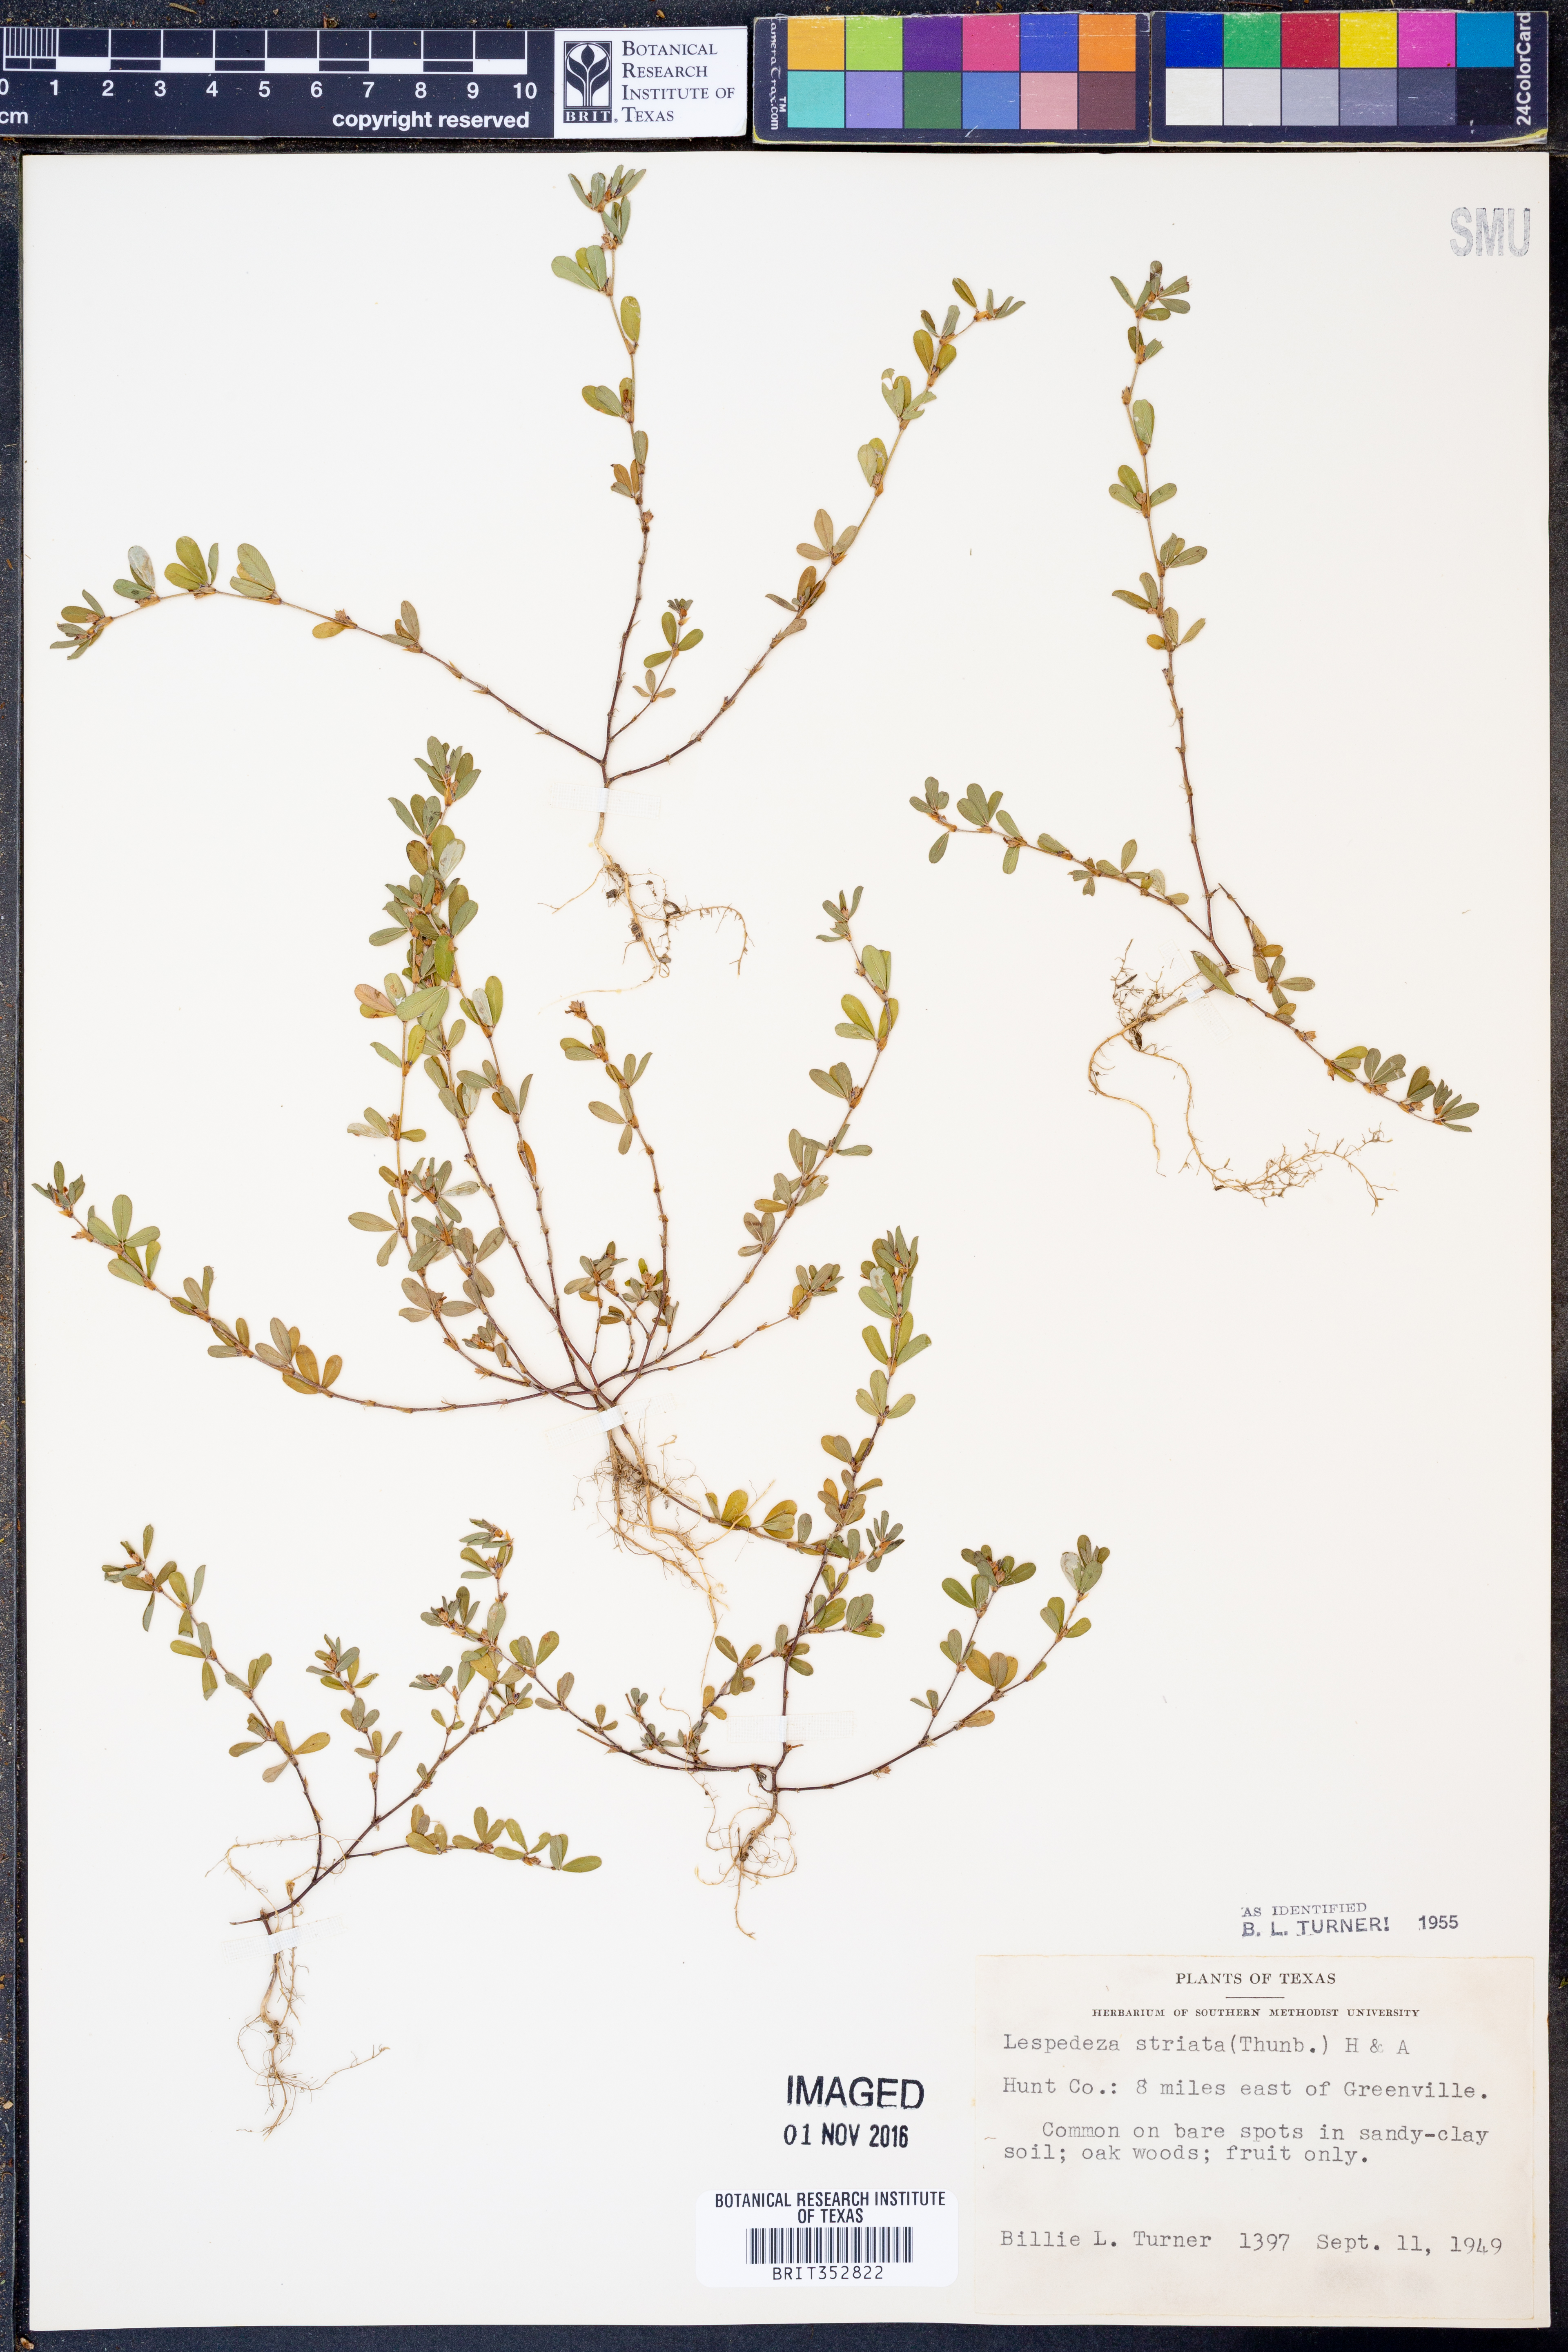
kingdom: Plantae
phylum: Tracheophyta
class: Magnoliopsida
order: Fabales
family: Fabaceae
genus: Kummerowia
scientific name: Kummerowia striata
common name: Japanese clover
